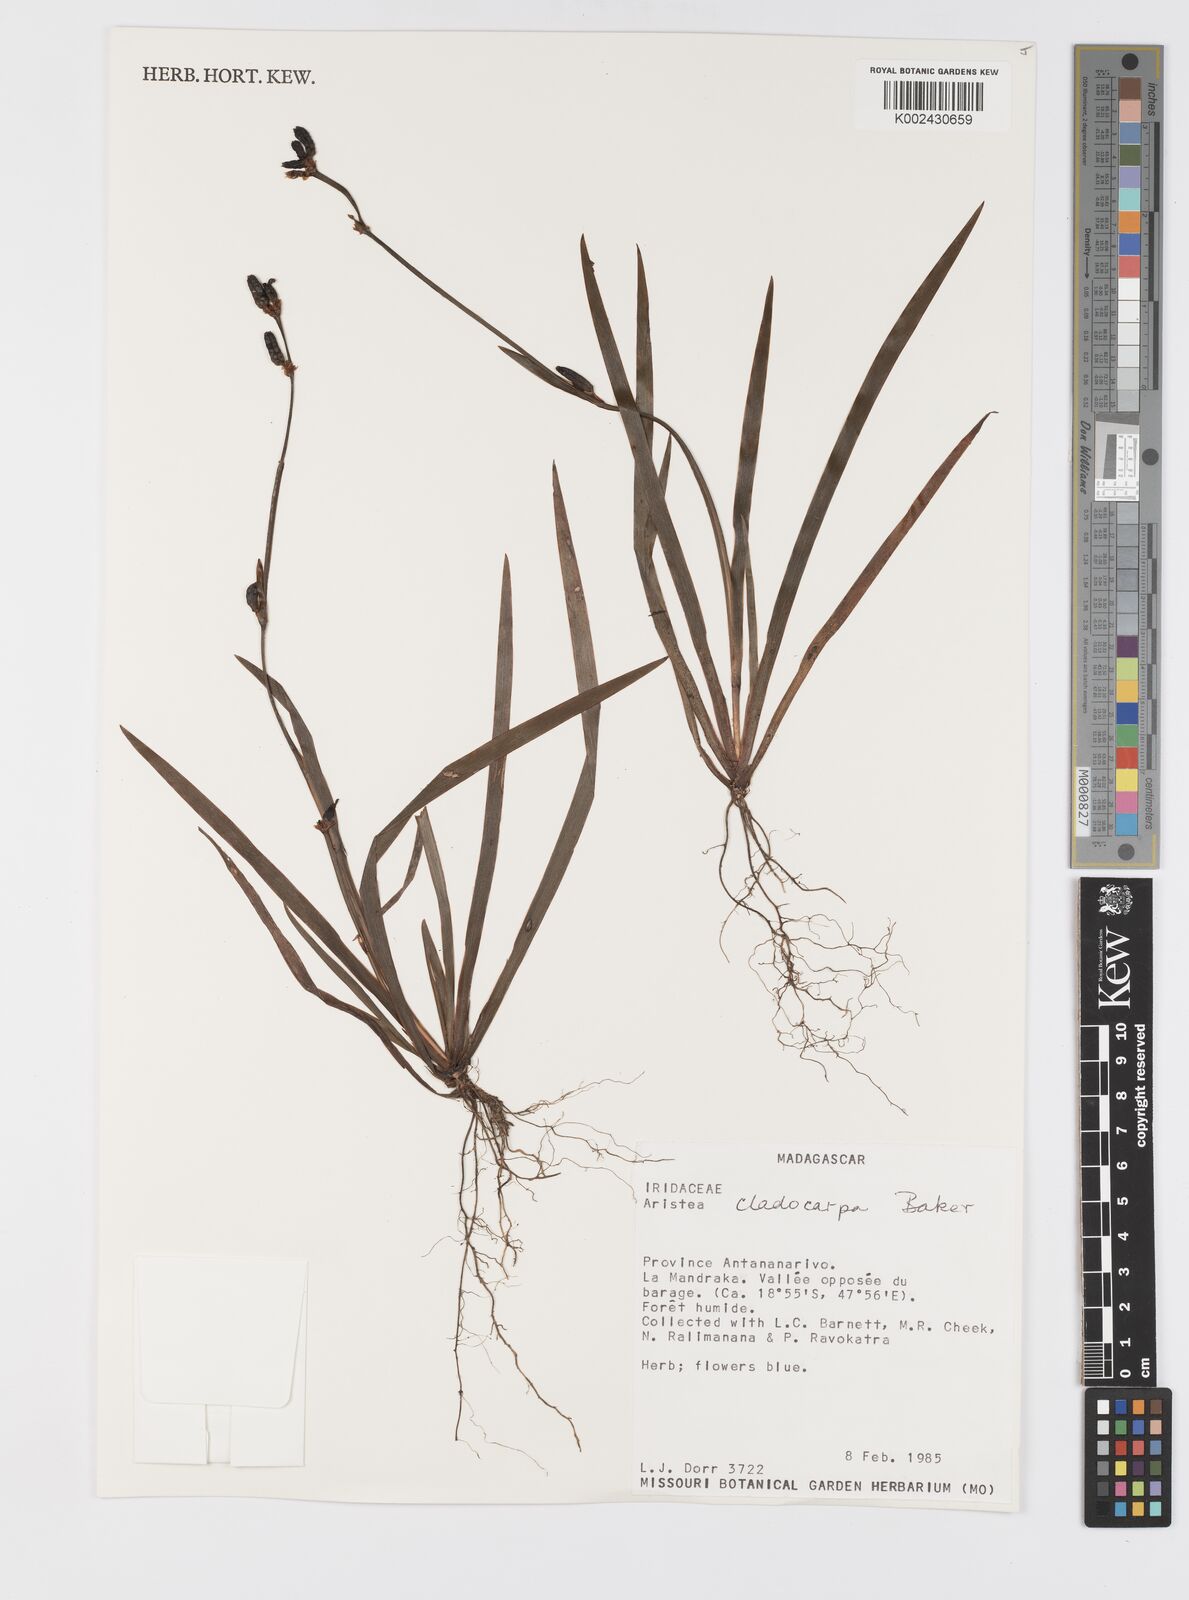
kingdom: Plantae
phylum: Tracheophyta
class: Liliopsida
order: Asparagales
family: Iridaceae
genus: Aristea
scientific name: Aristea cladocarpa
